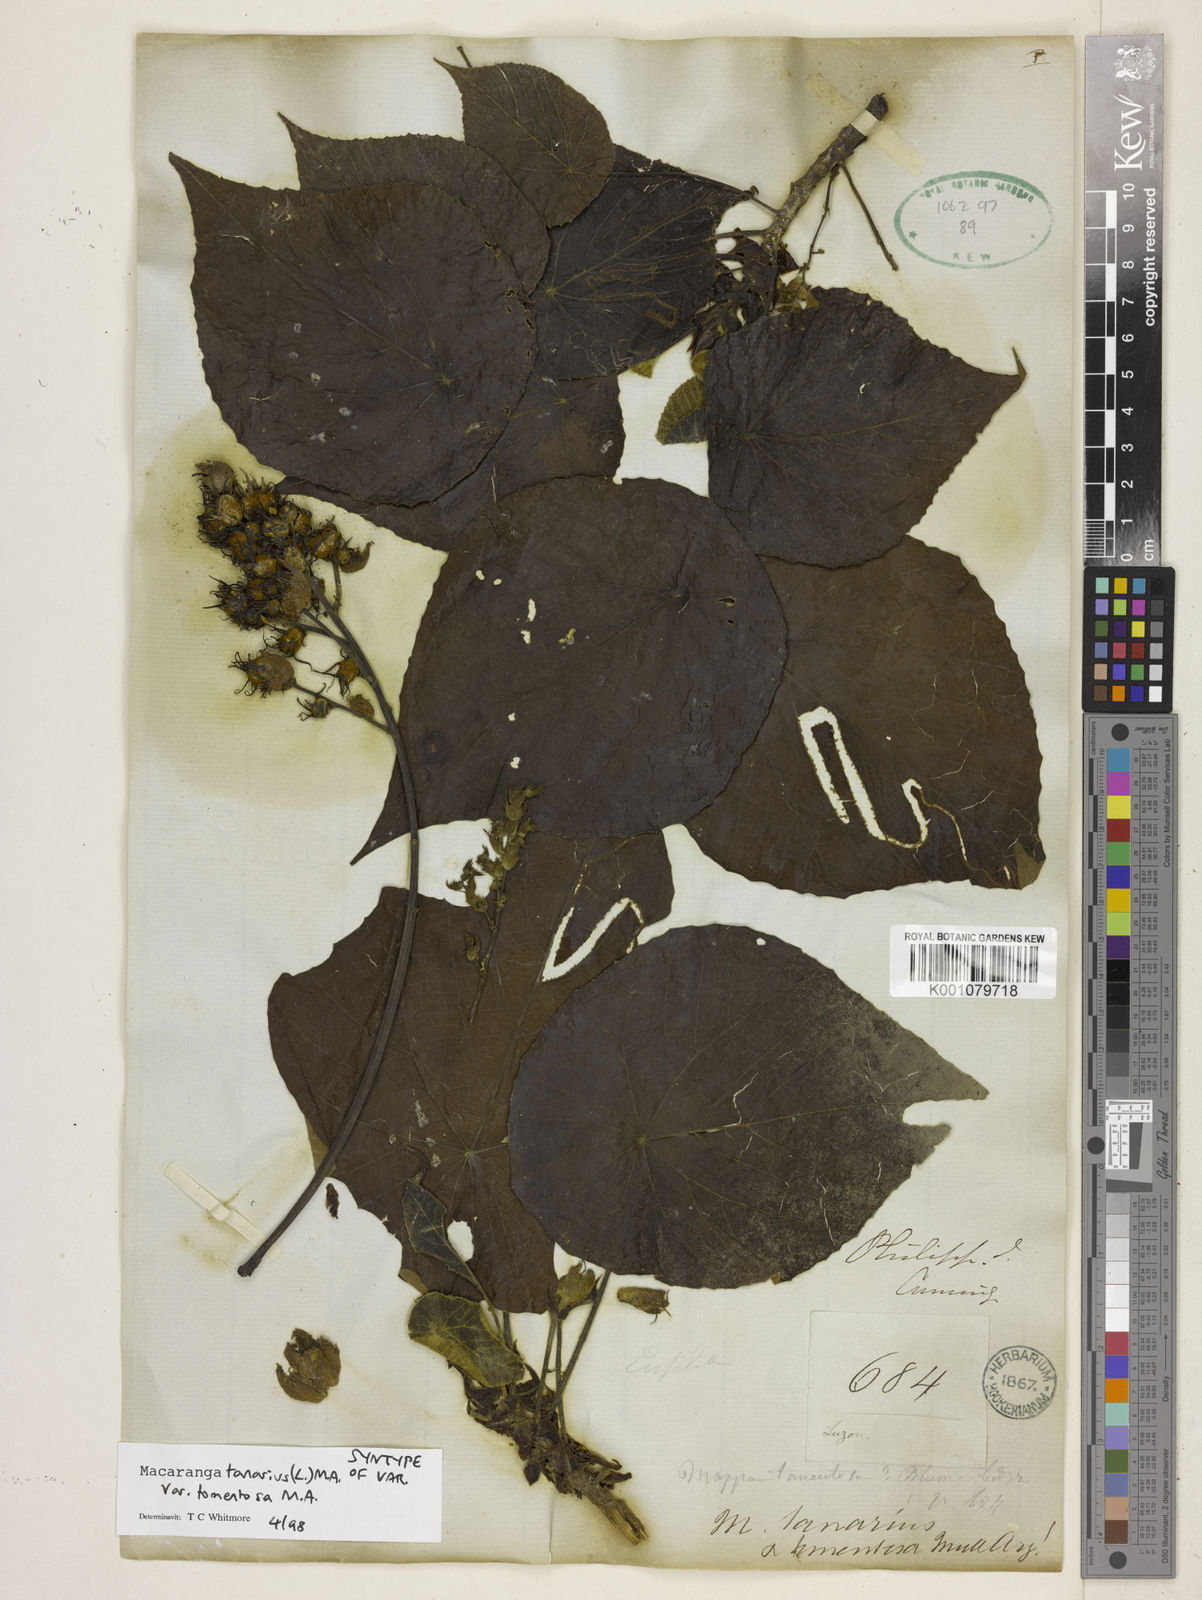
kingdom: Plantae
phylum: Tracheophyta
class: Magnoliopsida
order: Malpighiales
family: Euphorbiaceae
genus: Macaranga
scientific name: Macaranga tanarius
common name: Parasol leaf tree
